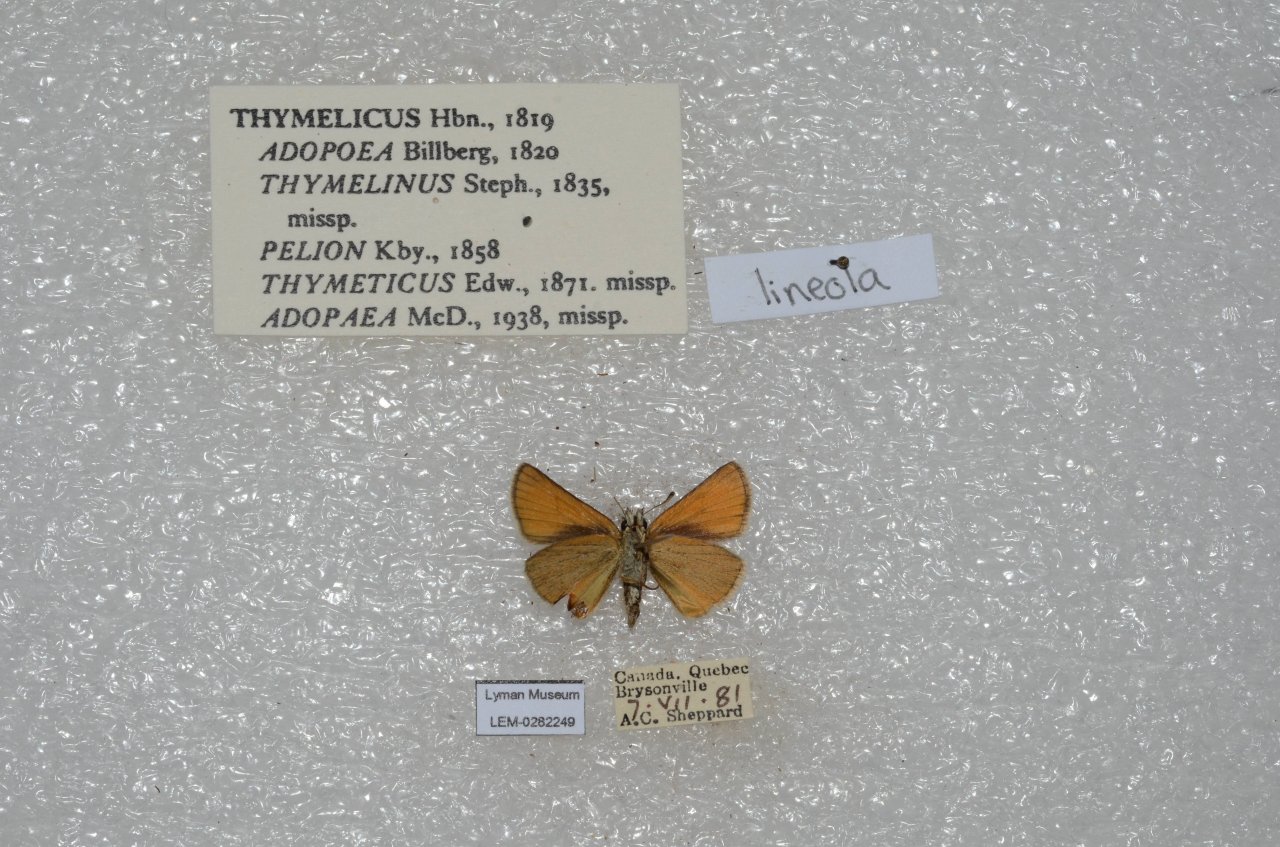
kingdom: Animalia
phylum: Arthropoda
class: Insecta
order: Lepidoptera
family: Hesperiidae
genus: Thymelicus
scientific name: Thymelicus lineola
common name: European Skipper
